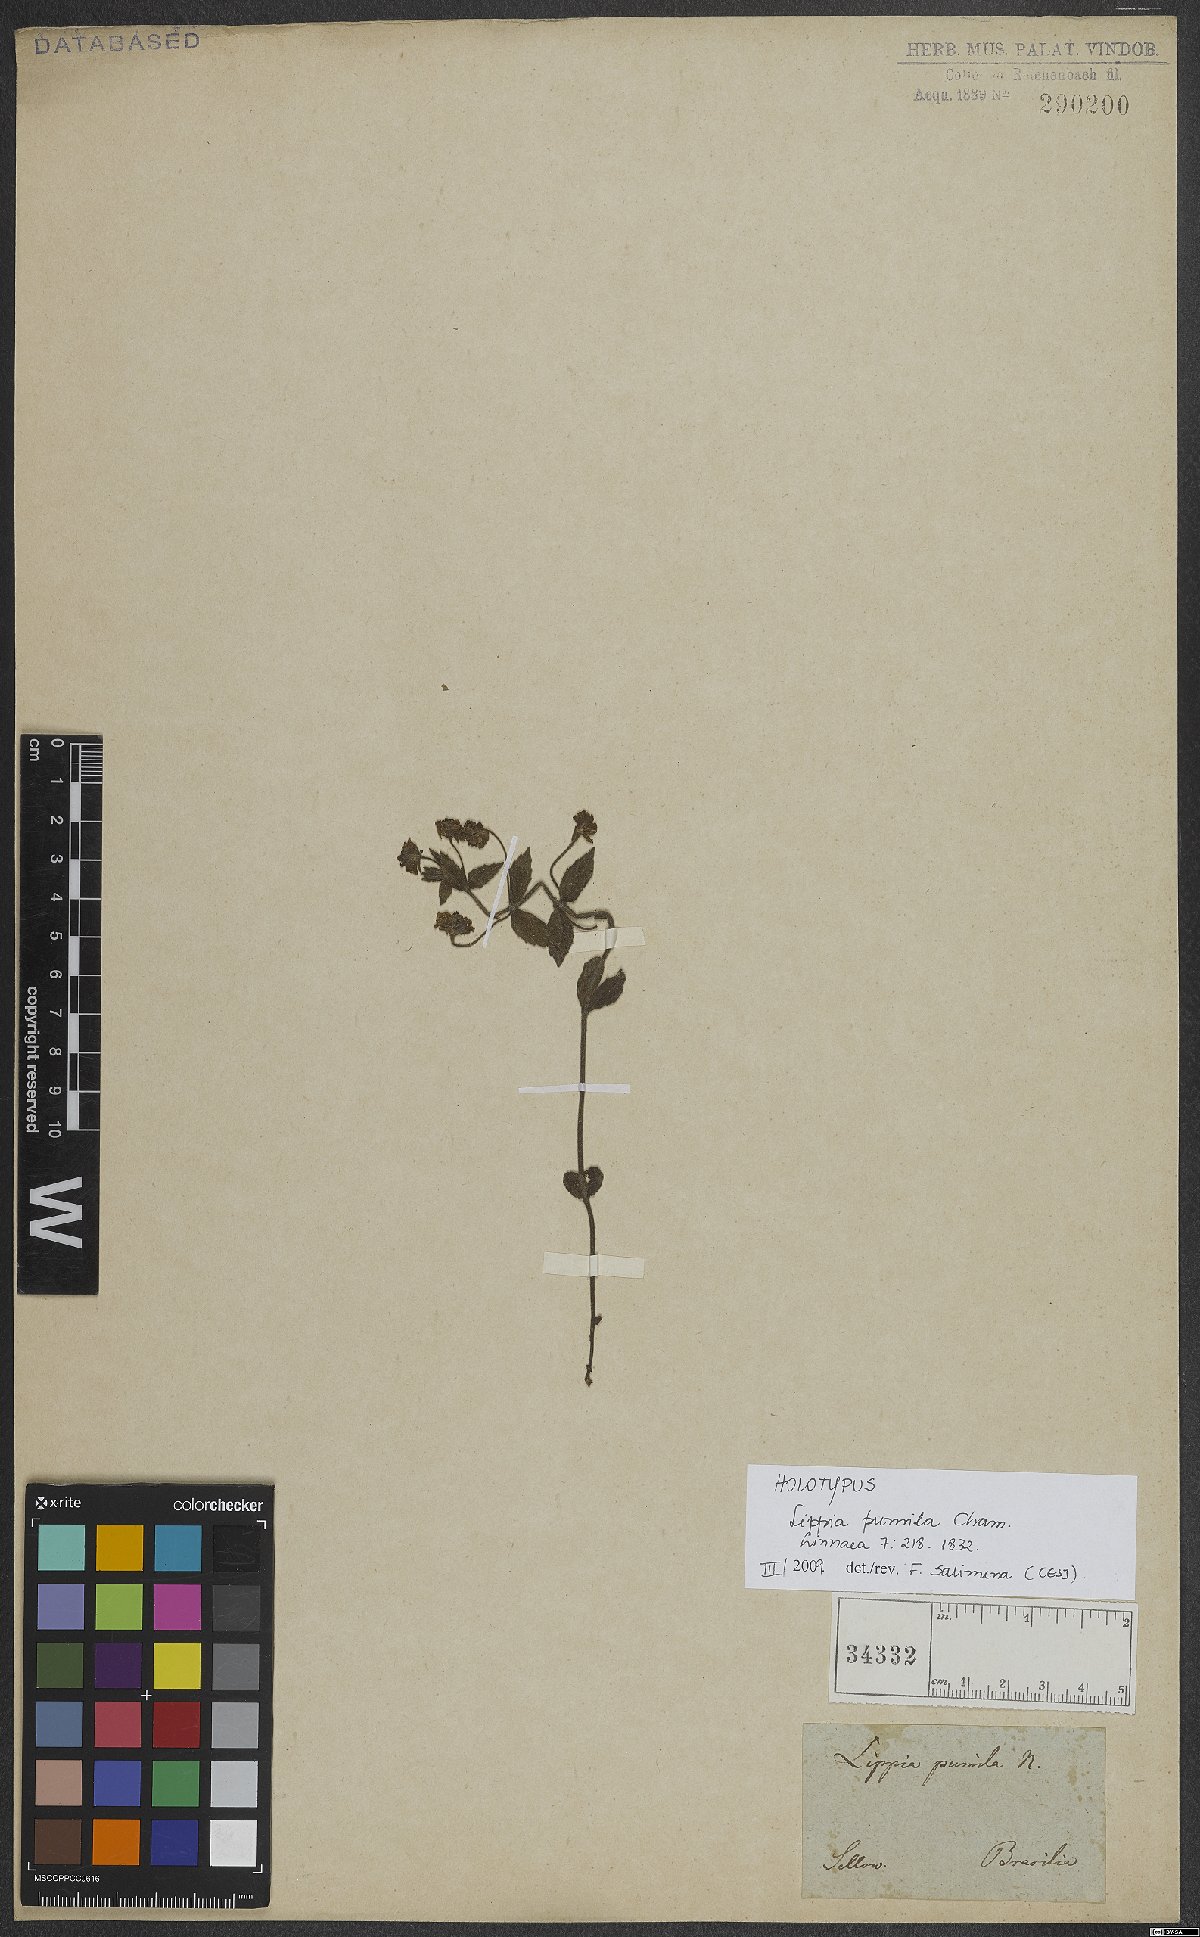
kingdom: Plantae
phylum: Tracheophyta
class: Magnoliopsida
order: Lamiales
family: Verbenaceae
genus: Lippia
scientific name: Lippia pumila
